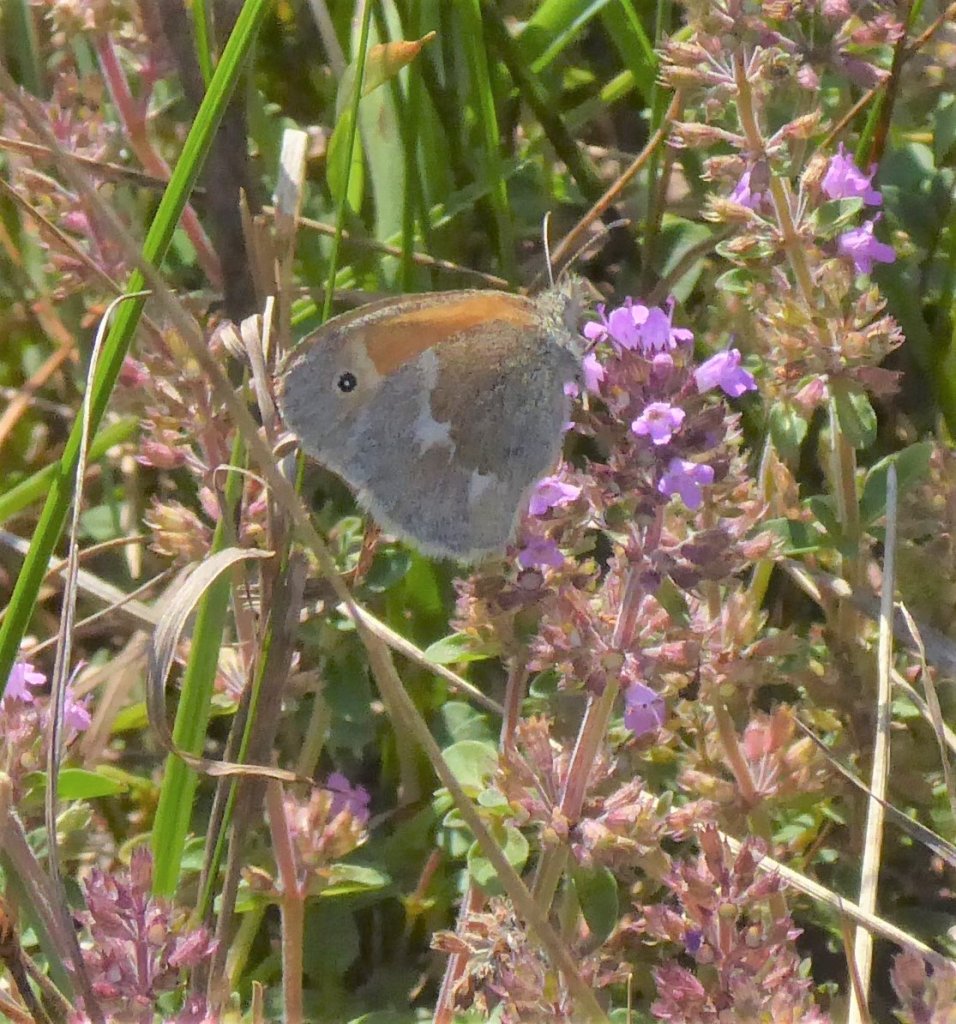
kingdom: Animalia
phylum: Arthropoda
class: Insecta
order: Lepidoptera
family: Nymphalidae
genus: Coenonympha
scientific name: Coenonympha tullia
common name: Large Heath
